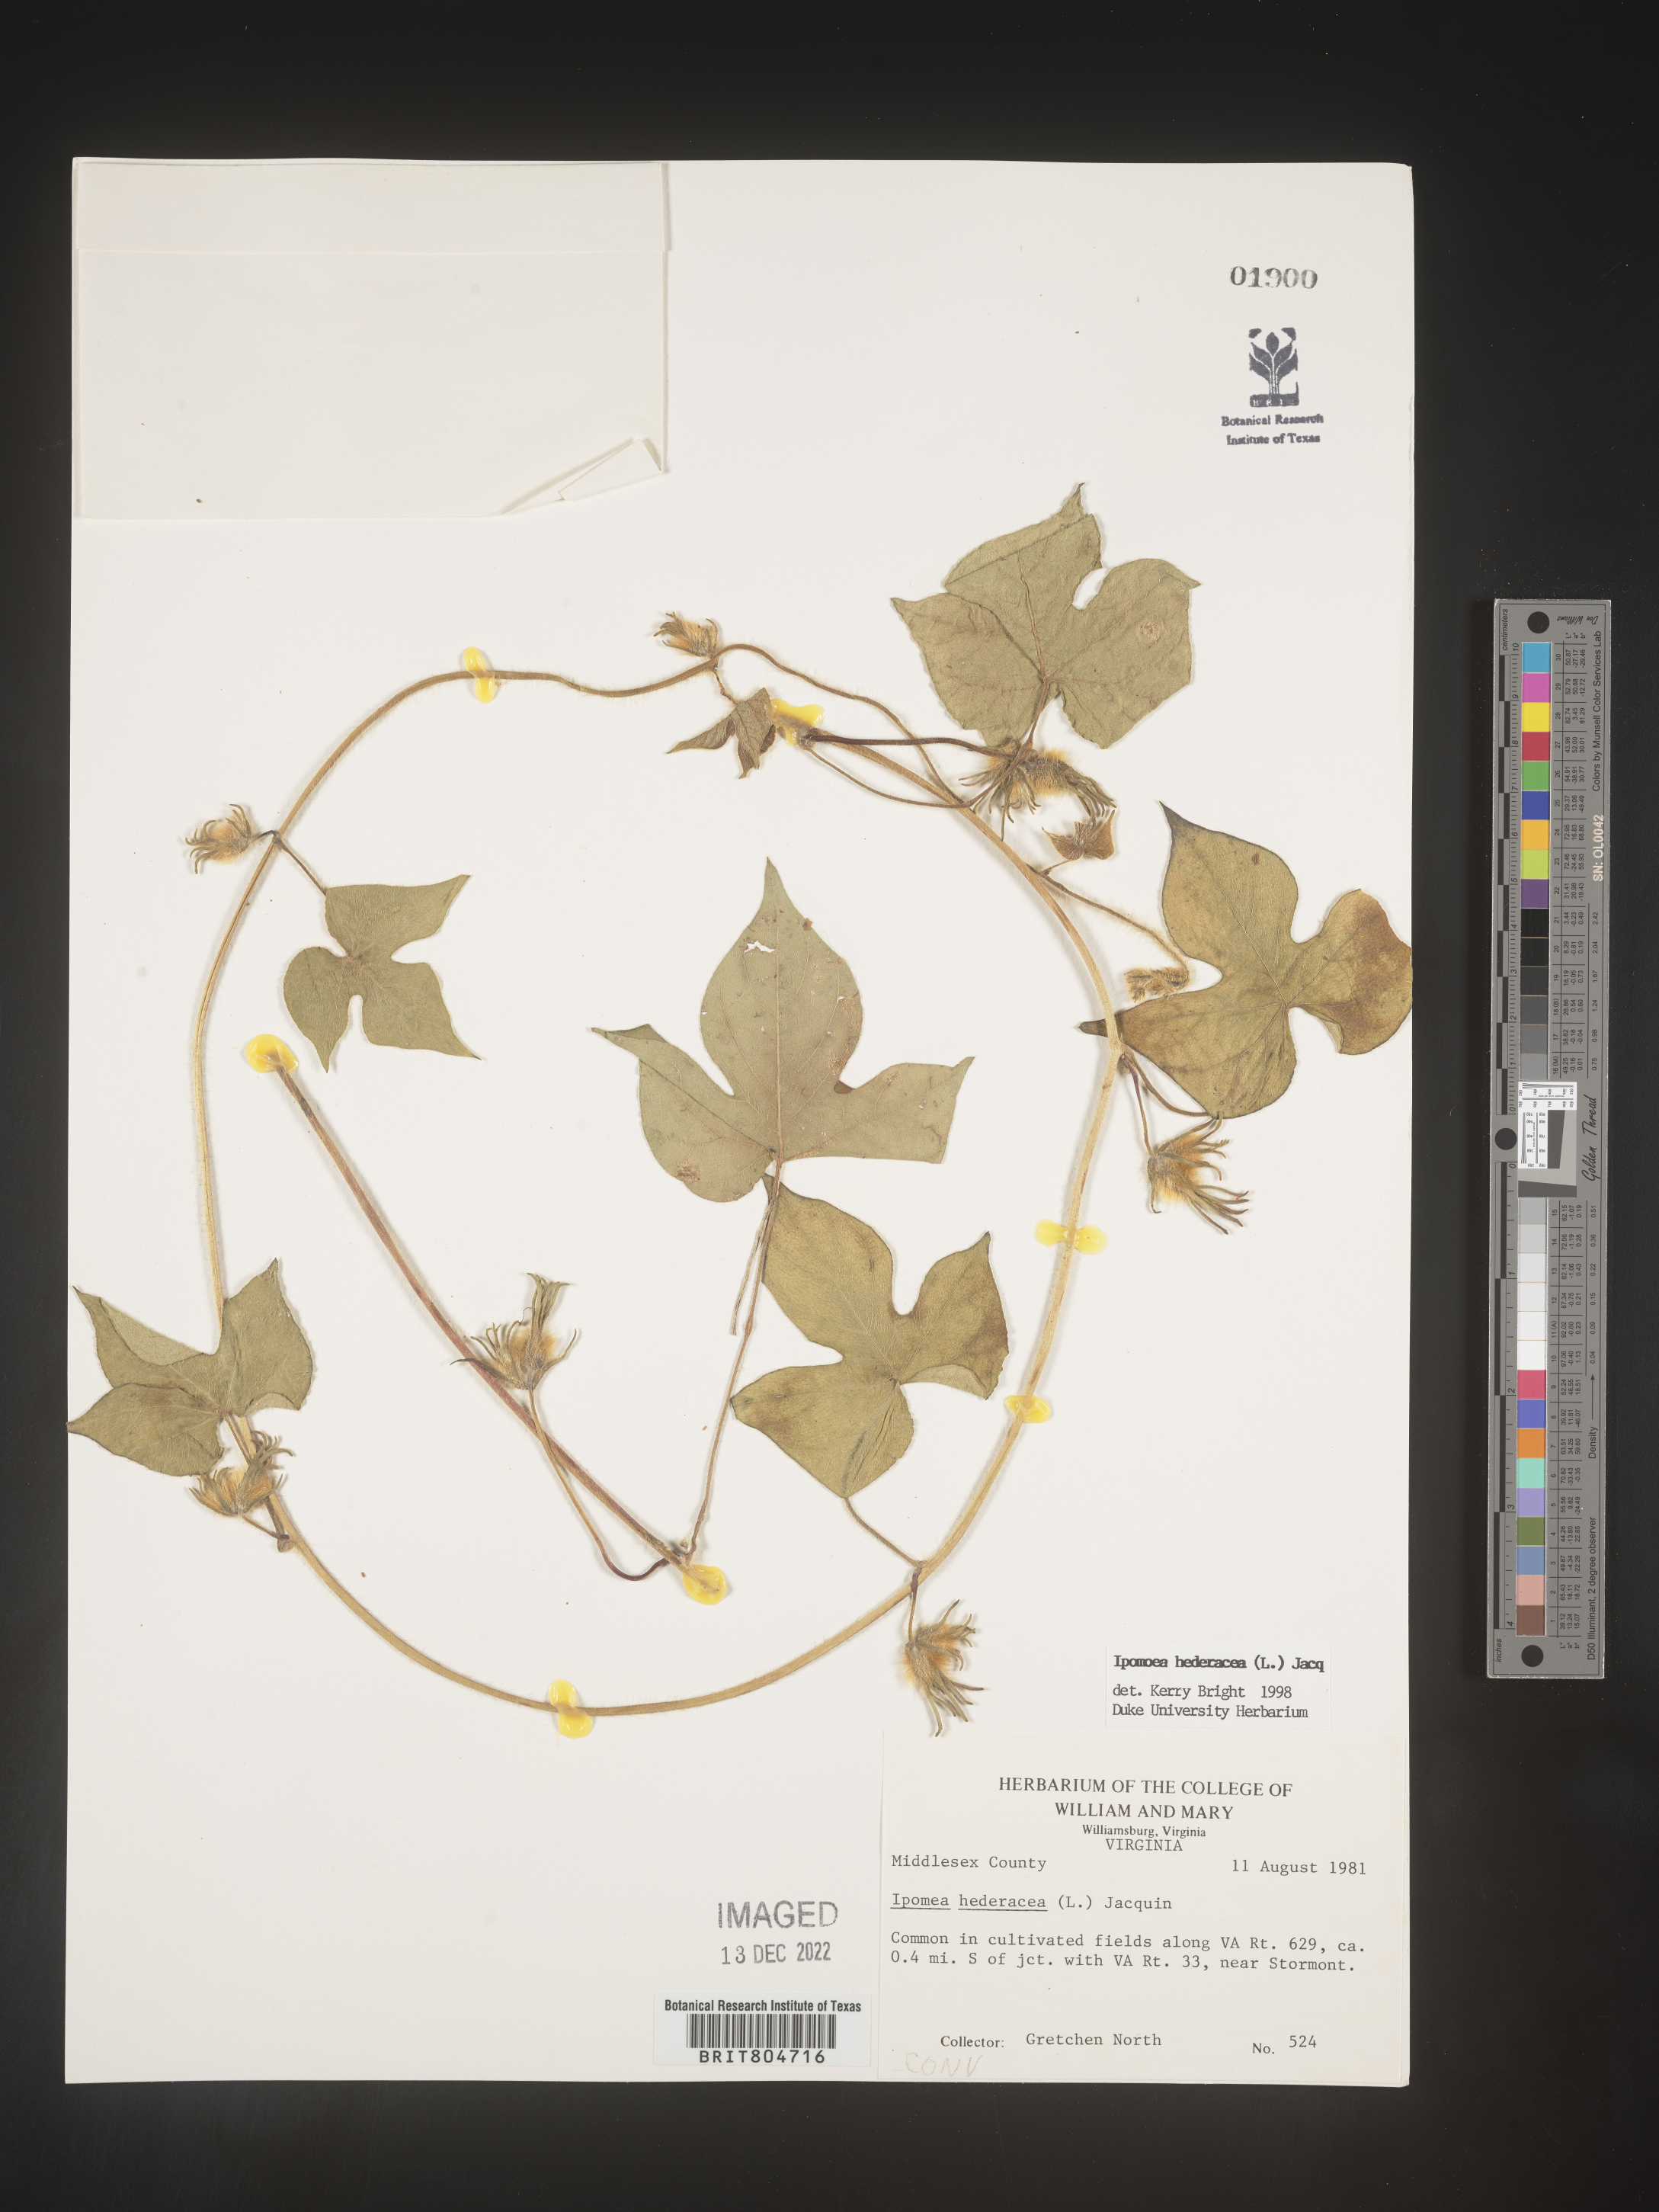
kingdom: Plantae
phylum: Tracheophyta
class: Magnoliopsida
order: Solanales
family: Convolvulaceae
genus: Ipomoea
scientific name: Ipomoea hederacea
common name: Ivy-leaved morning-glory
